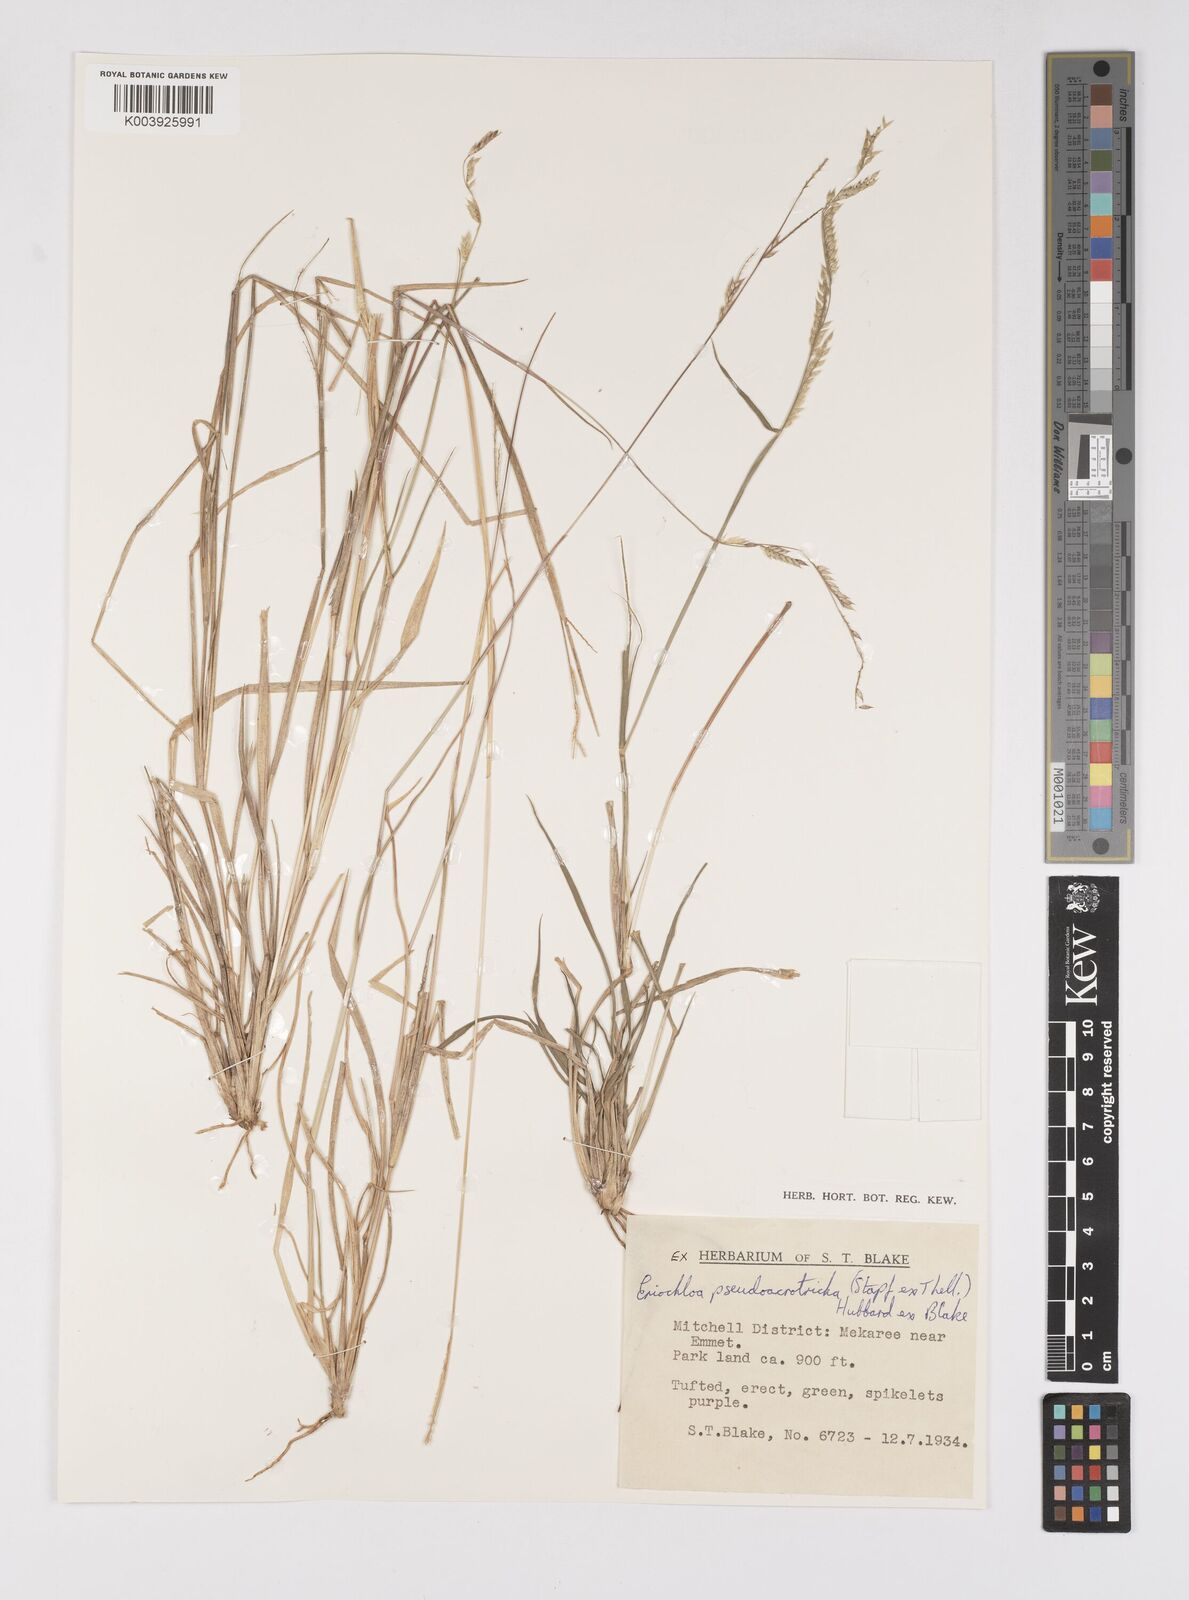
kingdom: Plantae
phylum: Tracheophyta
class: Liliopsida
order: Poales
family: Poaceae
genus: Eriochloa
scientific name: Eriochloa pseudoacrotricha
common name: Perennial cup-grass
